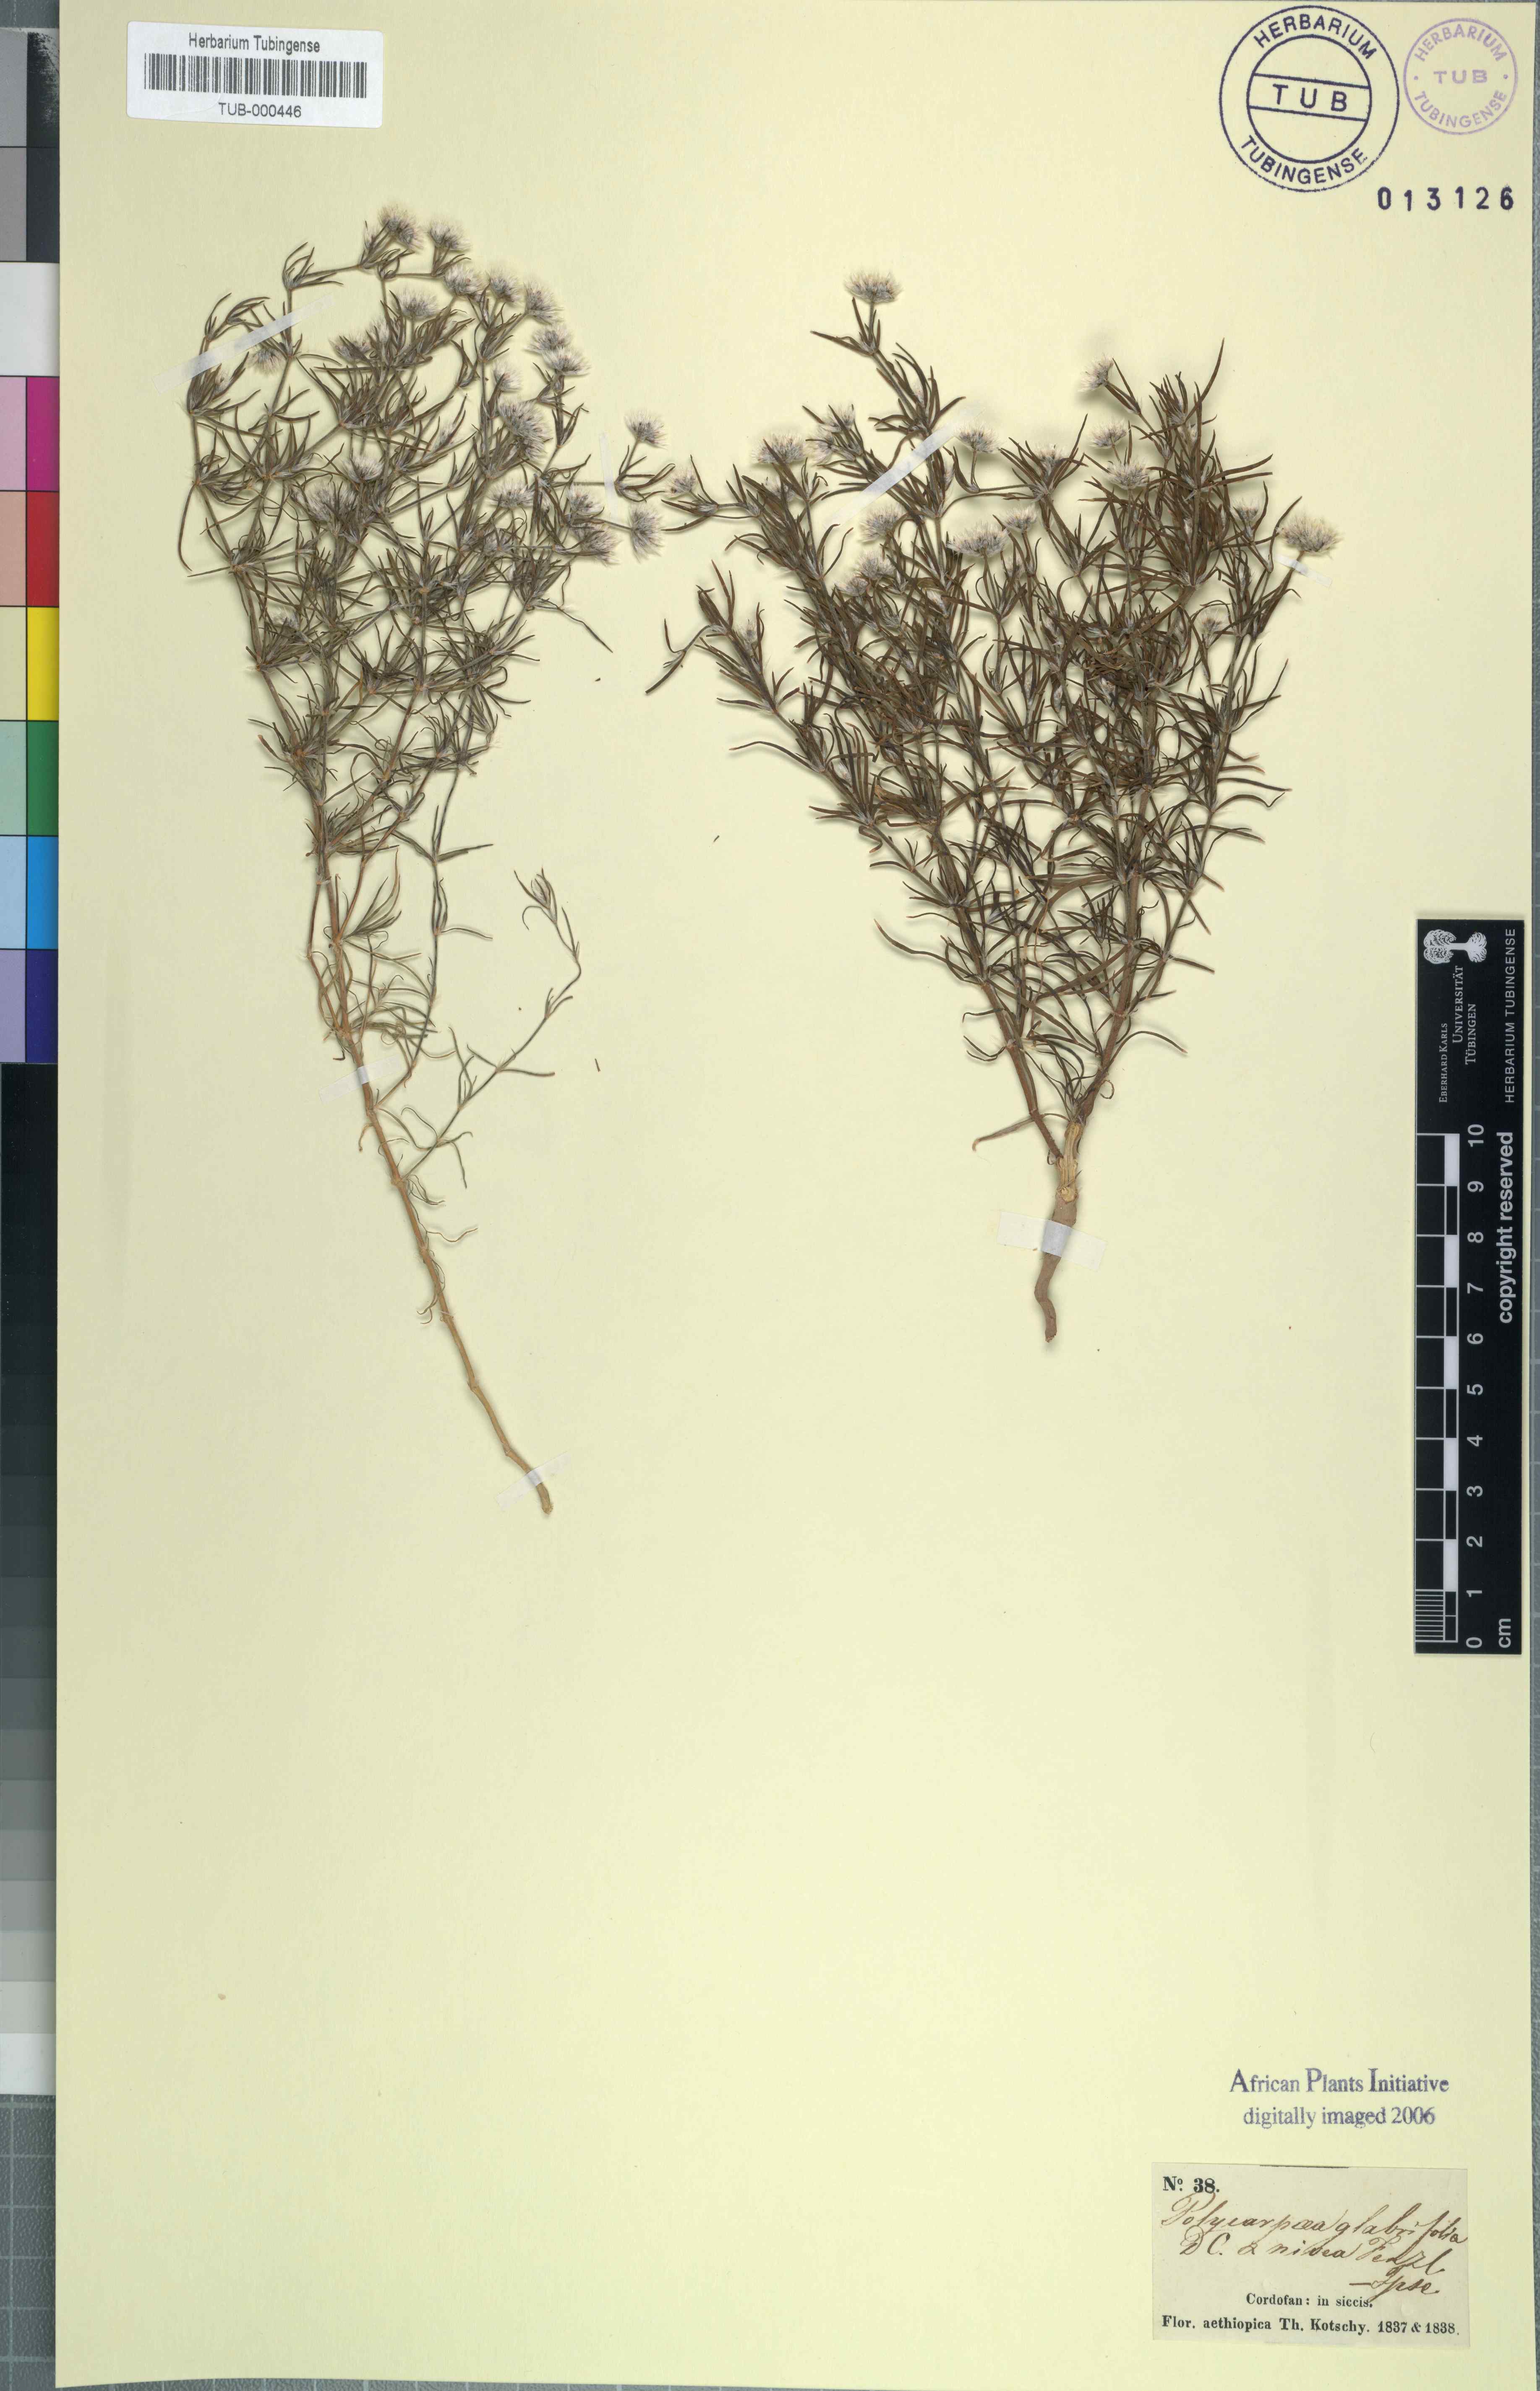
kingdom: Plantae
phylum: Tracheophyta
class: Magnoliopsida
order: Caryophyllales
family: Caryophyllaceae
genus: Polycarpaea
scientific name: Polycarpaea corymbosa
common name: Oldman's cap
